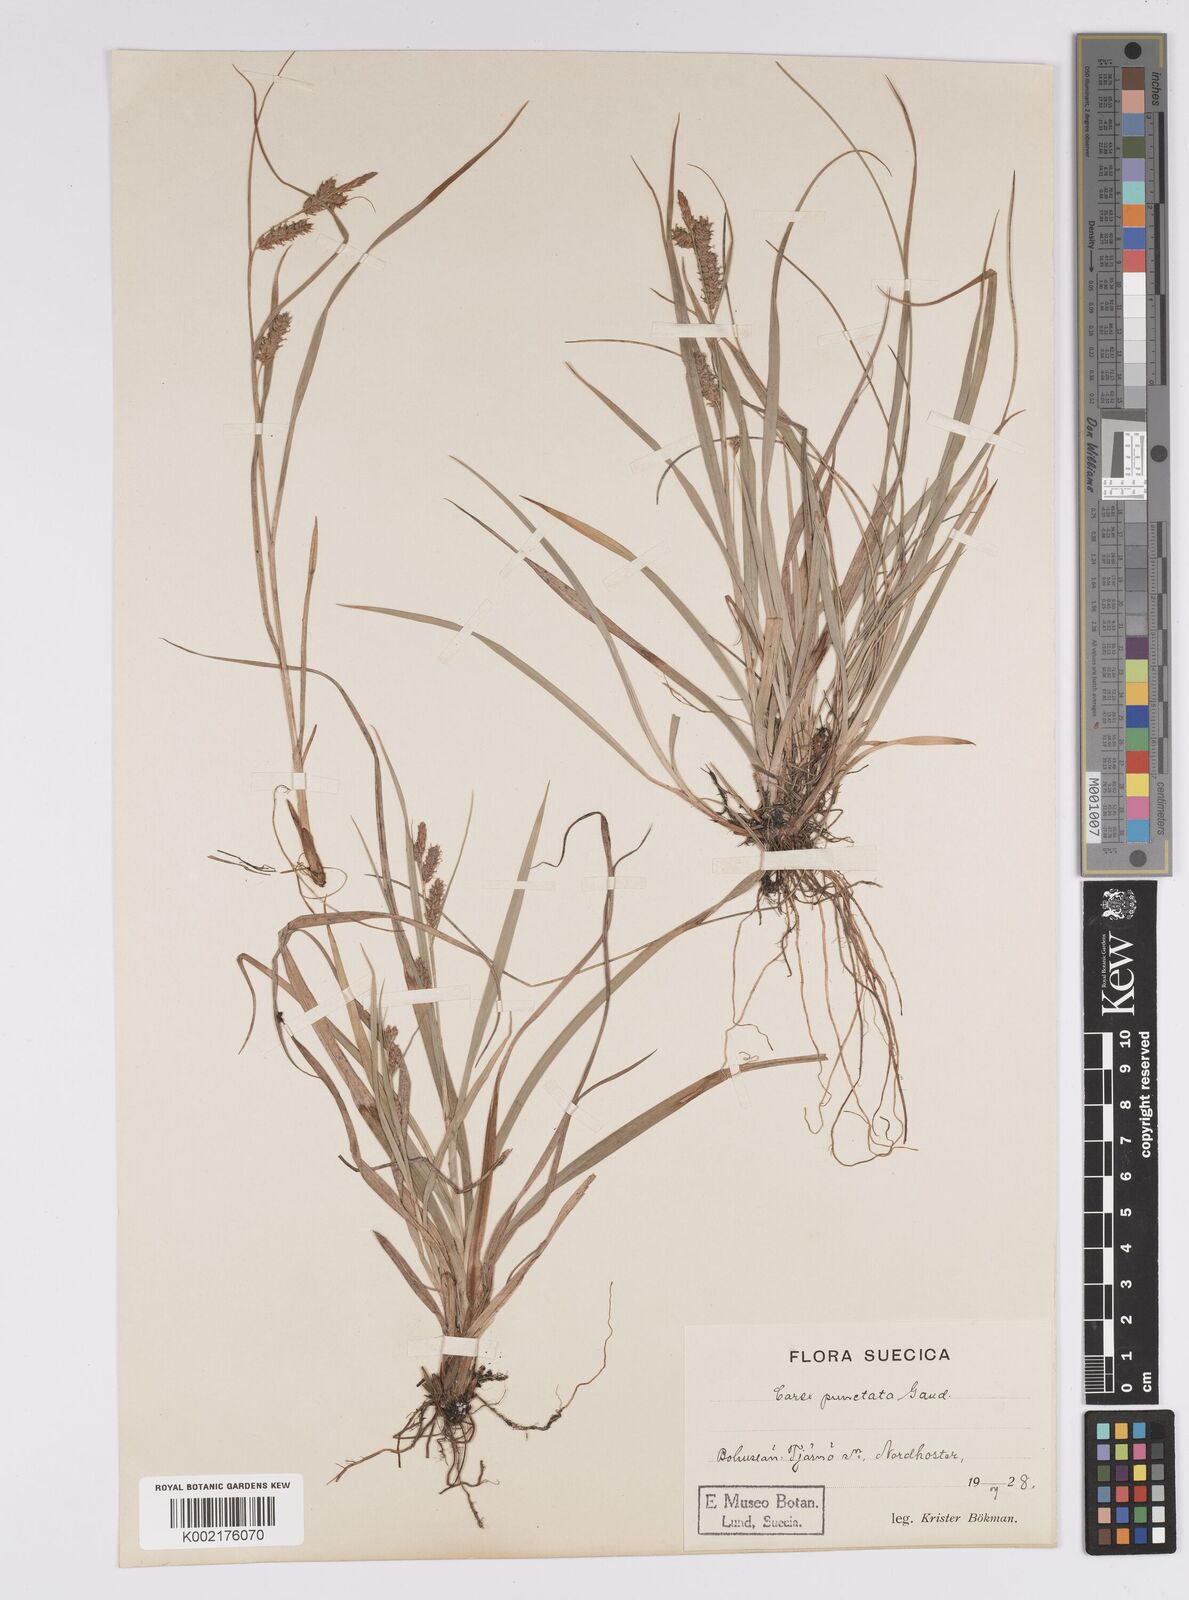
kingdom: Plantae
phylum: Tracheophyta
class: Liliopsida
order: Poales
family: Cyperaceae
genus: Carex
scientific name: Carex punctata
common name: Dotted sedge
